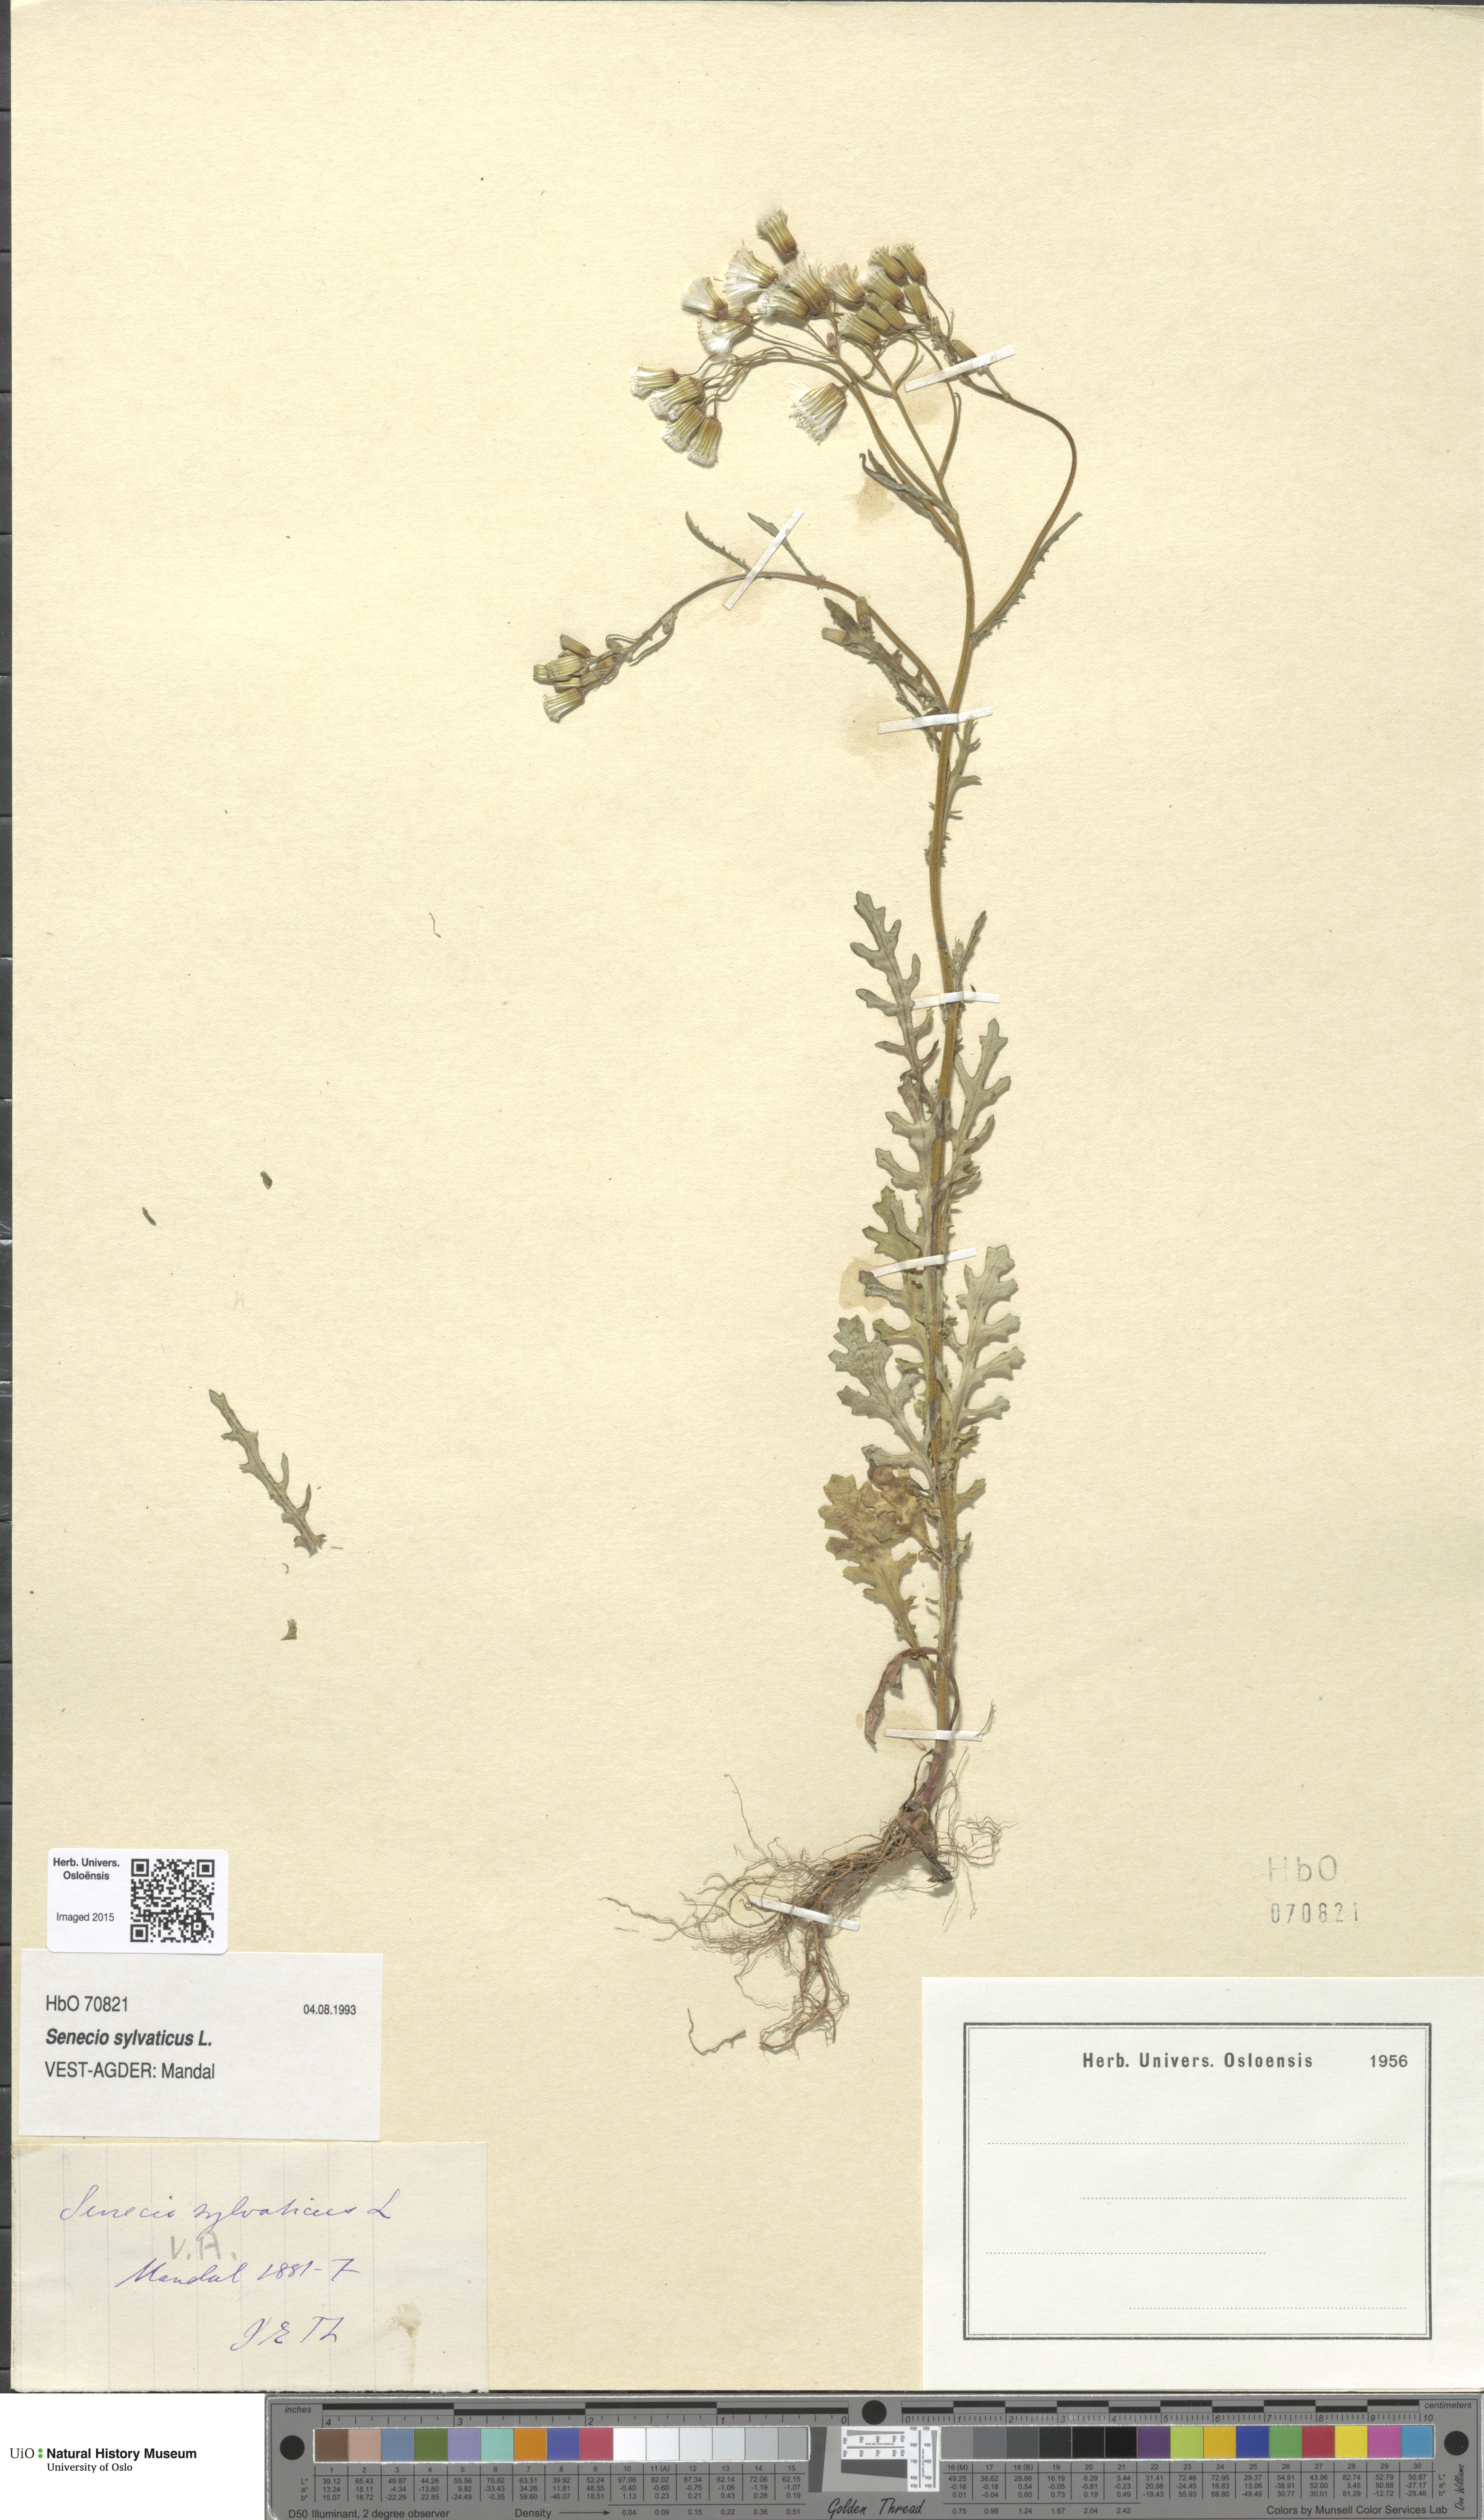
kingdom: Plantae
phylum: Tracheophyta
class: Magnoliopsida
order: Asterales
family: Asteraceae
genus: Senecio
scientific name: Senecio sylvaticus
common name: Woodland ragwort
